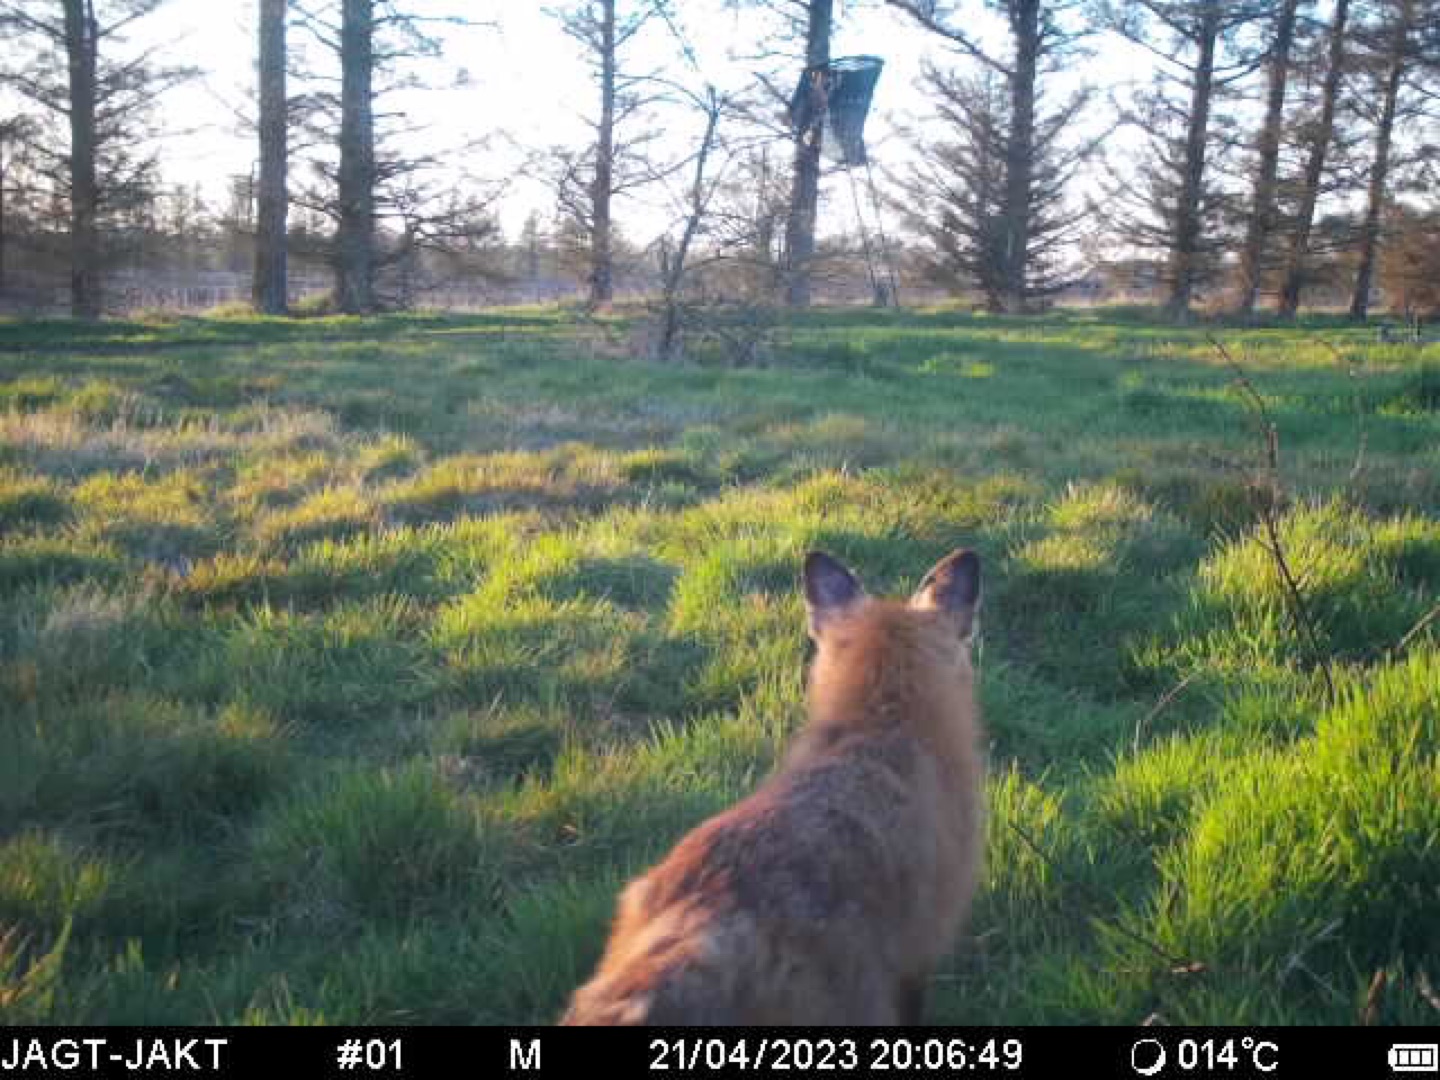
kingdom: Animalia
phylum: Chordata
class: Mammalia
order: Carnivora
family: Canidae
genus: Vulpes
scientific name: Vulpes vulpes
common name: Ræv
